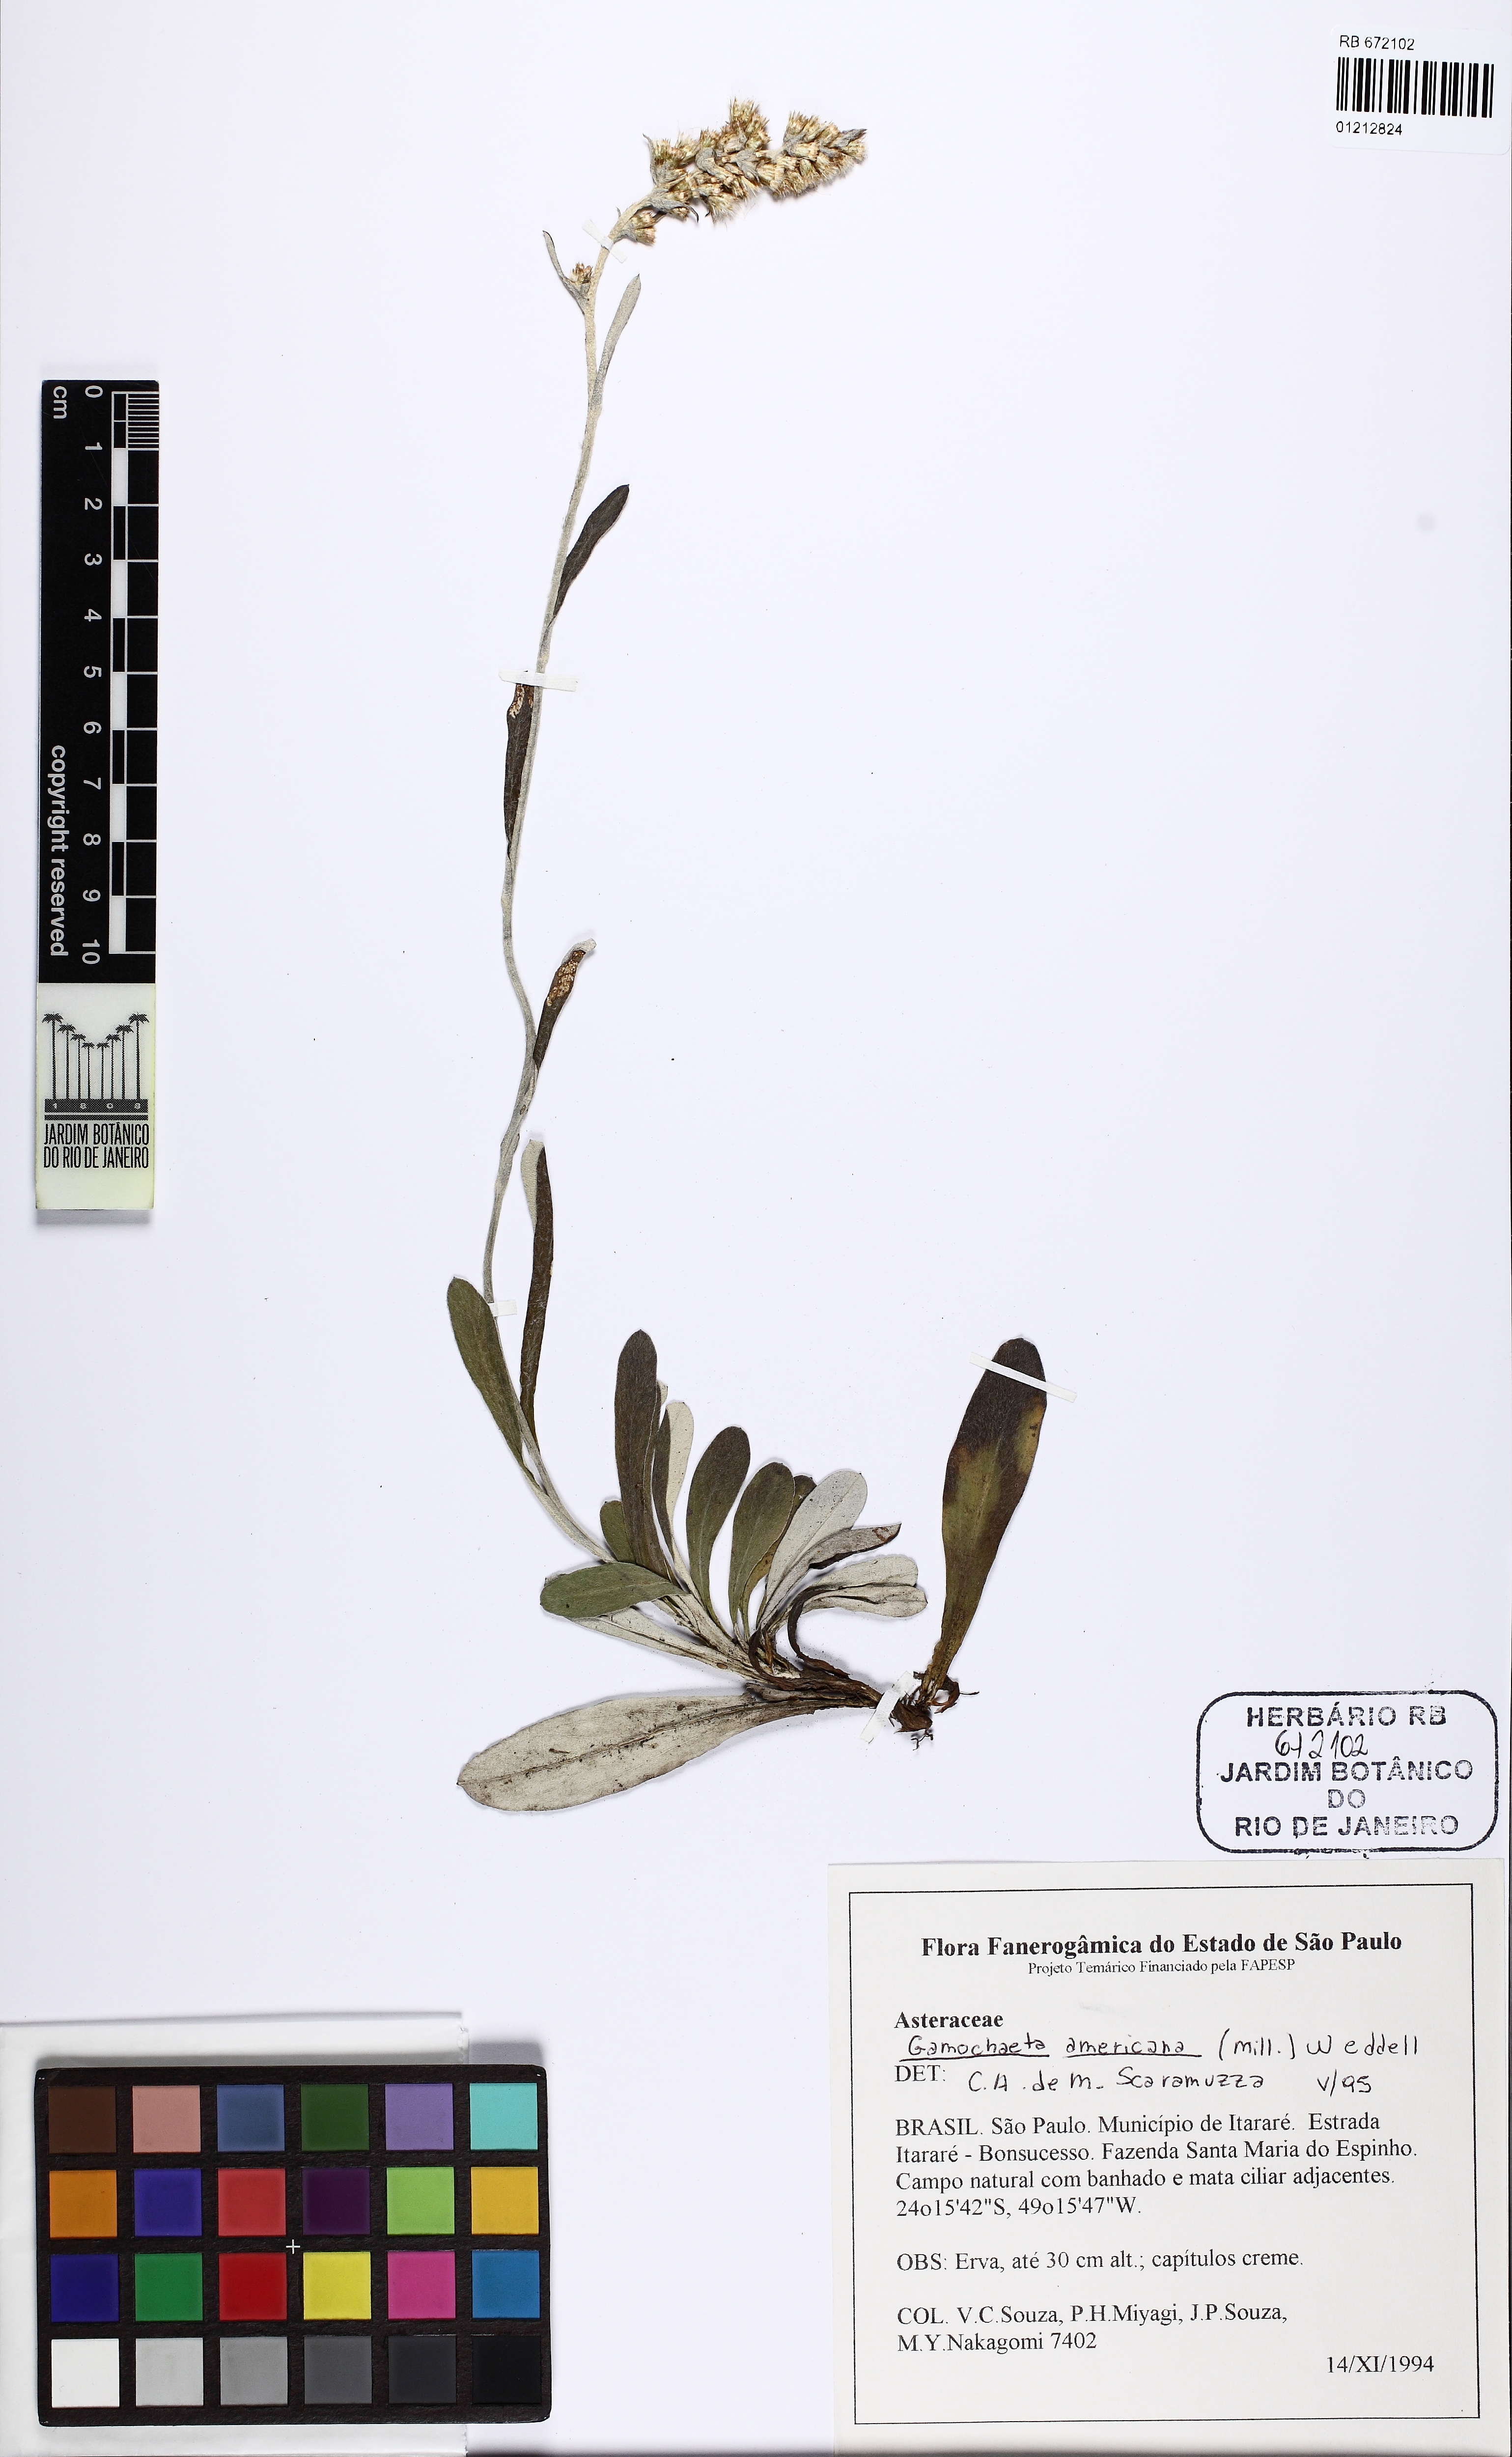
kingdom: Plantae
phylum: Tracheophyta
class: Magnoliopsida
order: Asterales
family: Asteraceae
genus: Gamochaeta
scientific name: Gamochaeta americana
